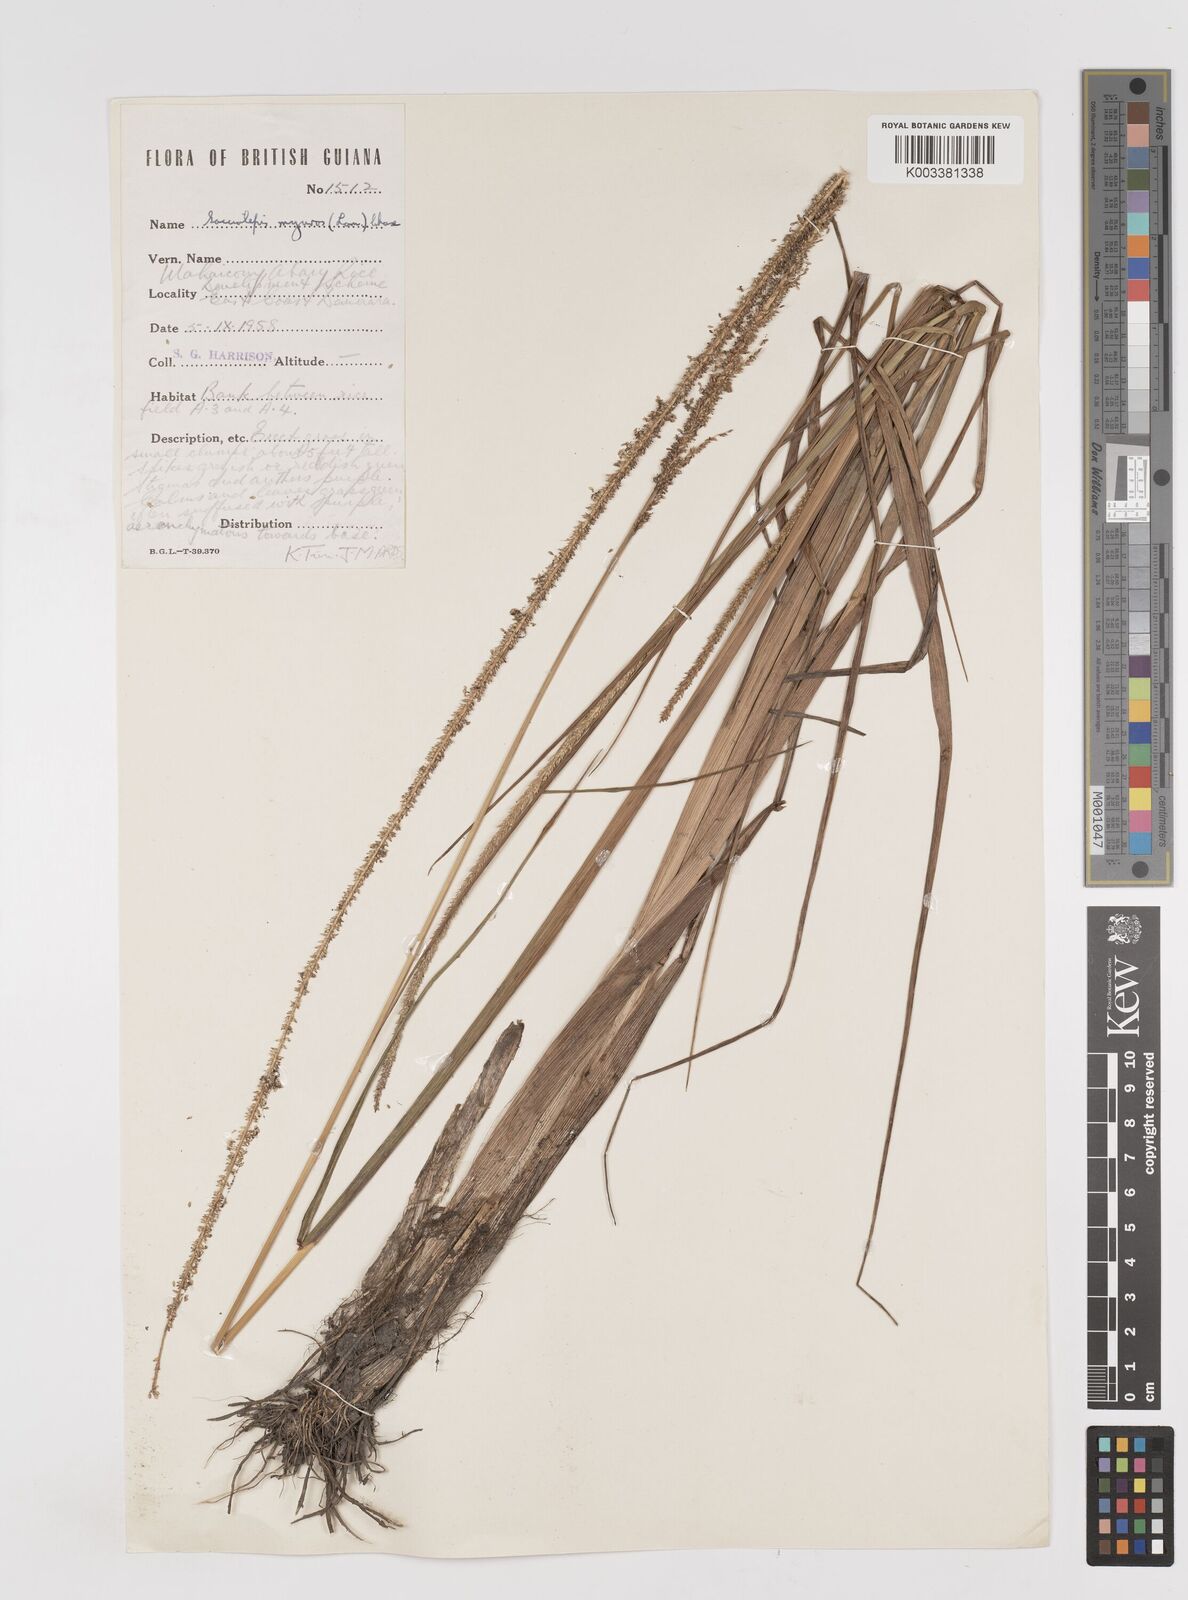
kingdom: Plantae
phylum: Tracheophyta
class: Liliopsida
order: Poales
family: Poaceae
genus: Sacciolepis
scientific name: Sacciolepis myuros
